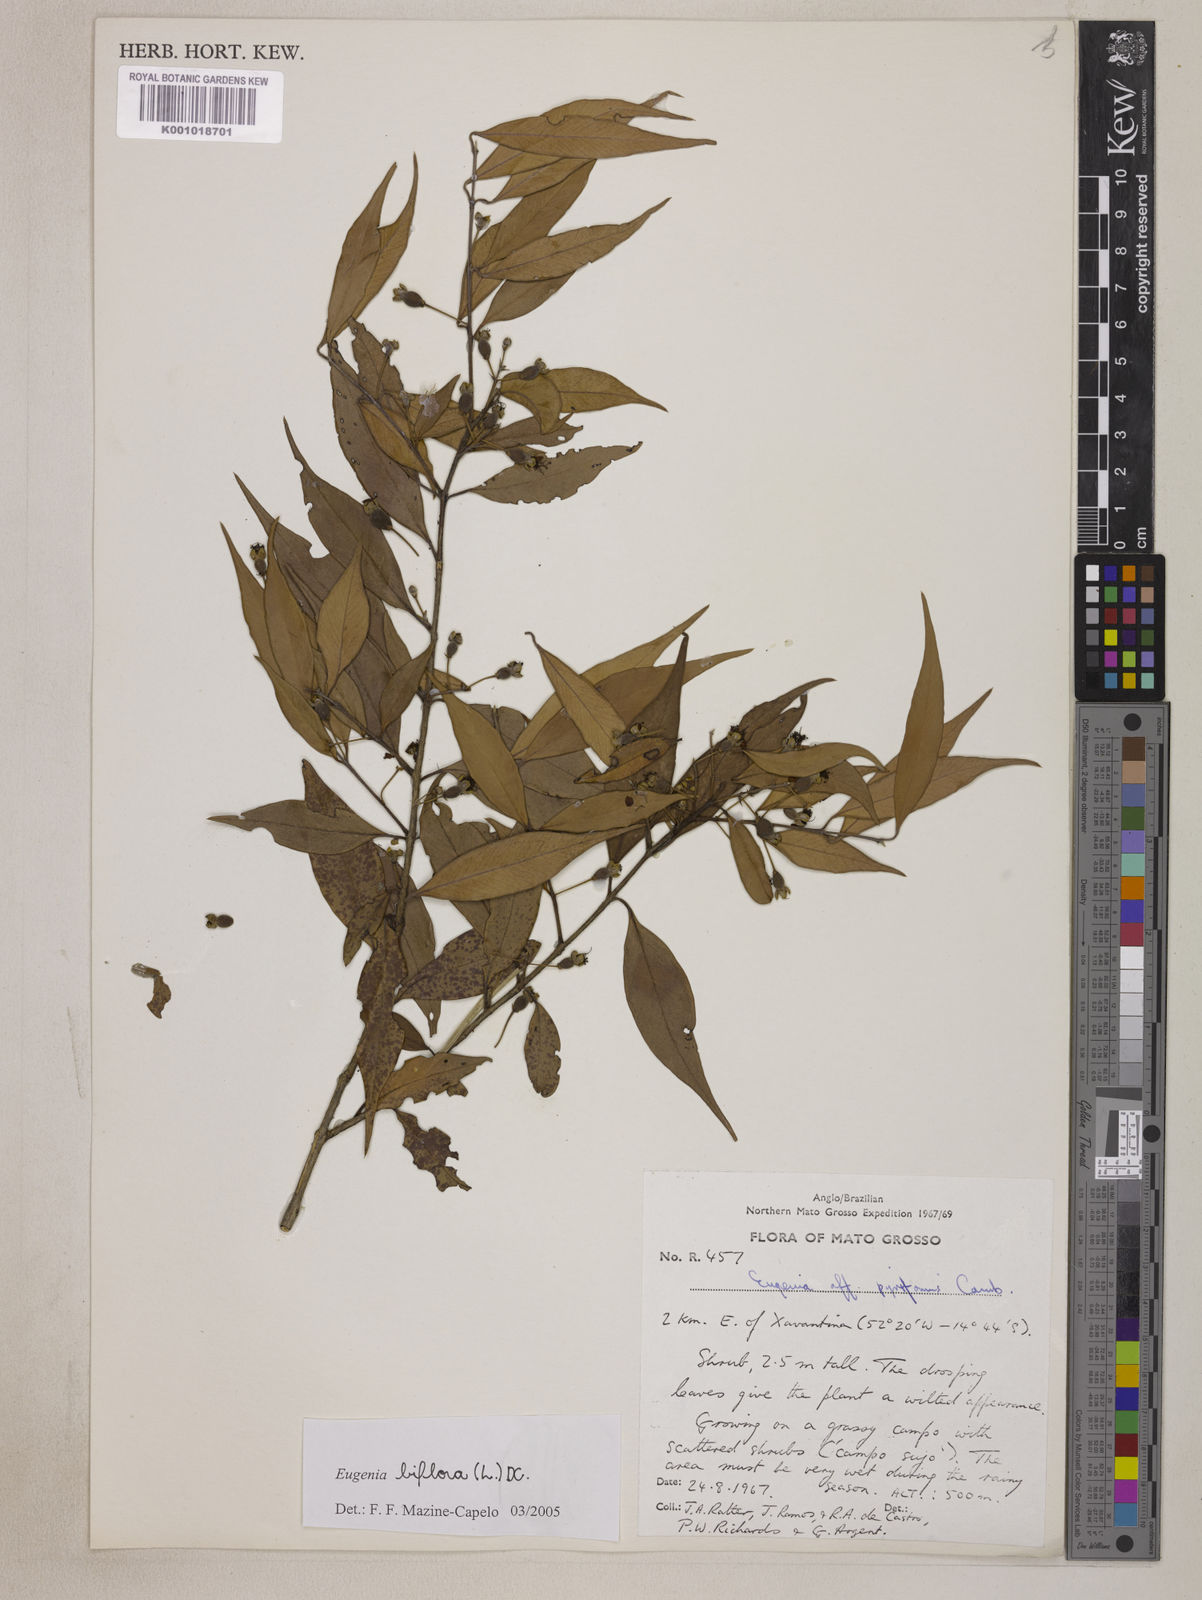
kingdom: Plantae
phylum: Tracheophyta
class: Magnoliopsida
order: Myrtales
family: Myrtaceae
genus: Eugenia
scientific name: Eugenia biflora
